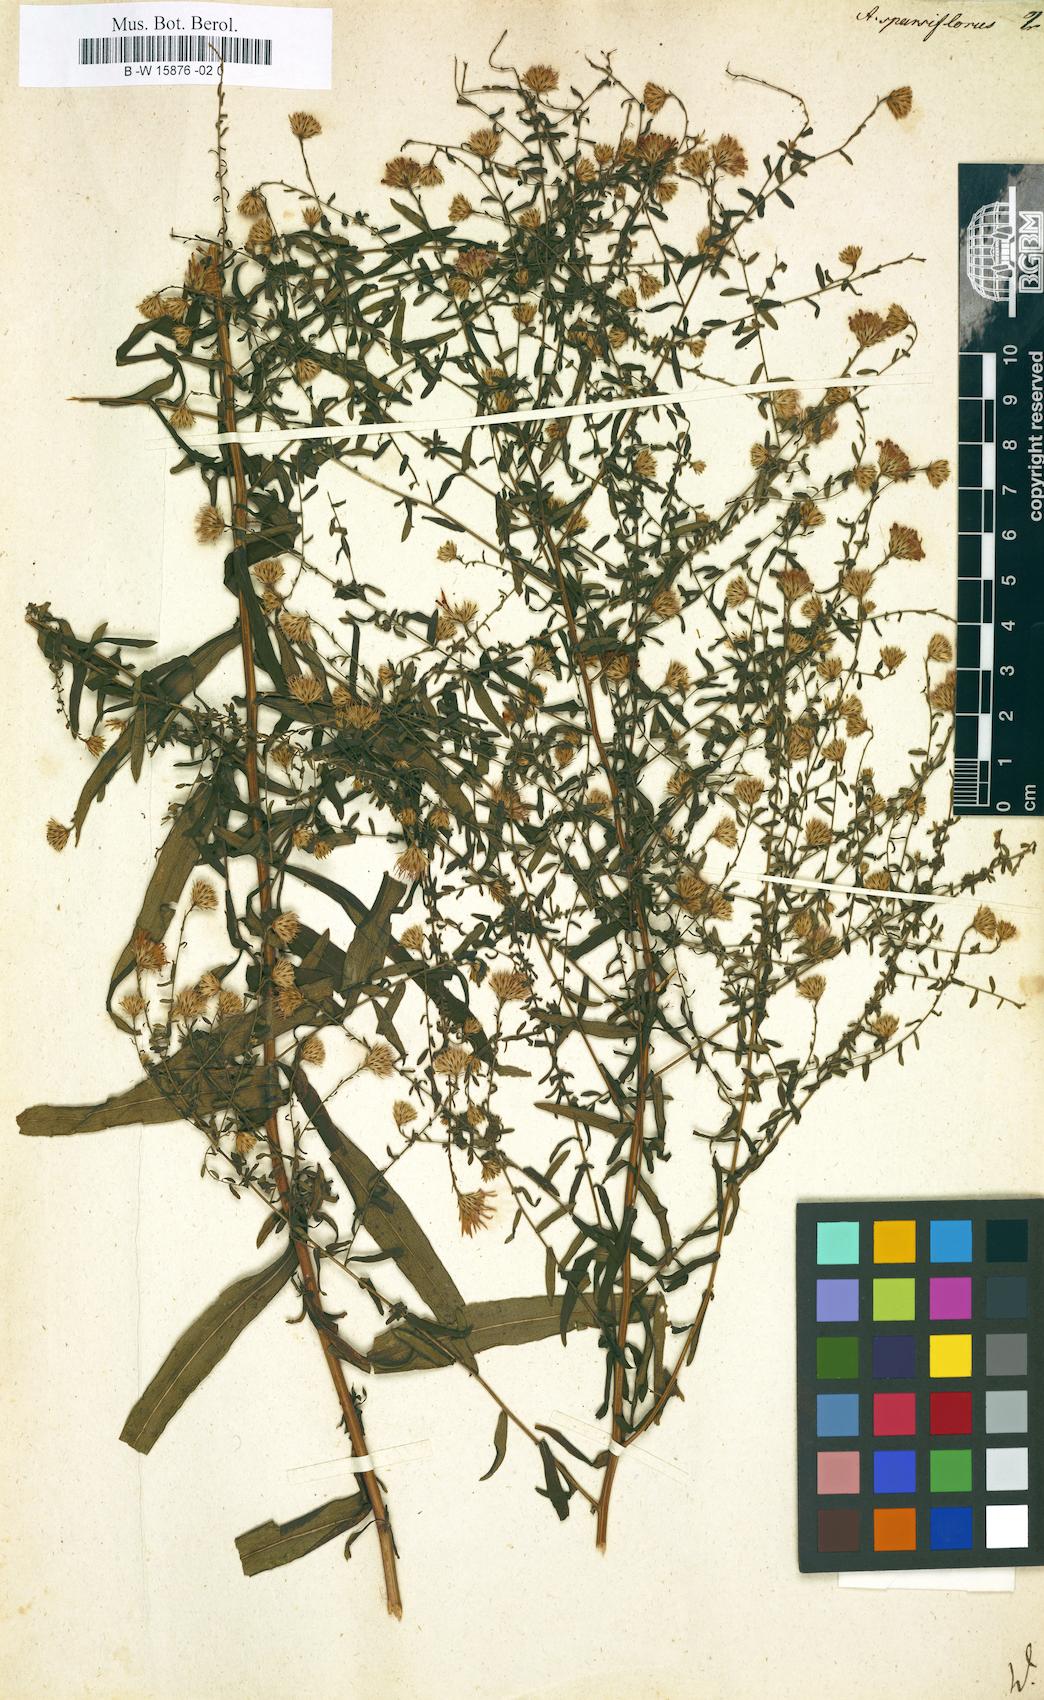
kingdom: Plantae
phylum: Tracheophyta
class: Magnoliopsida
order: Asterales
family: Asteraceae
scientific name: Asteraceae
